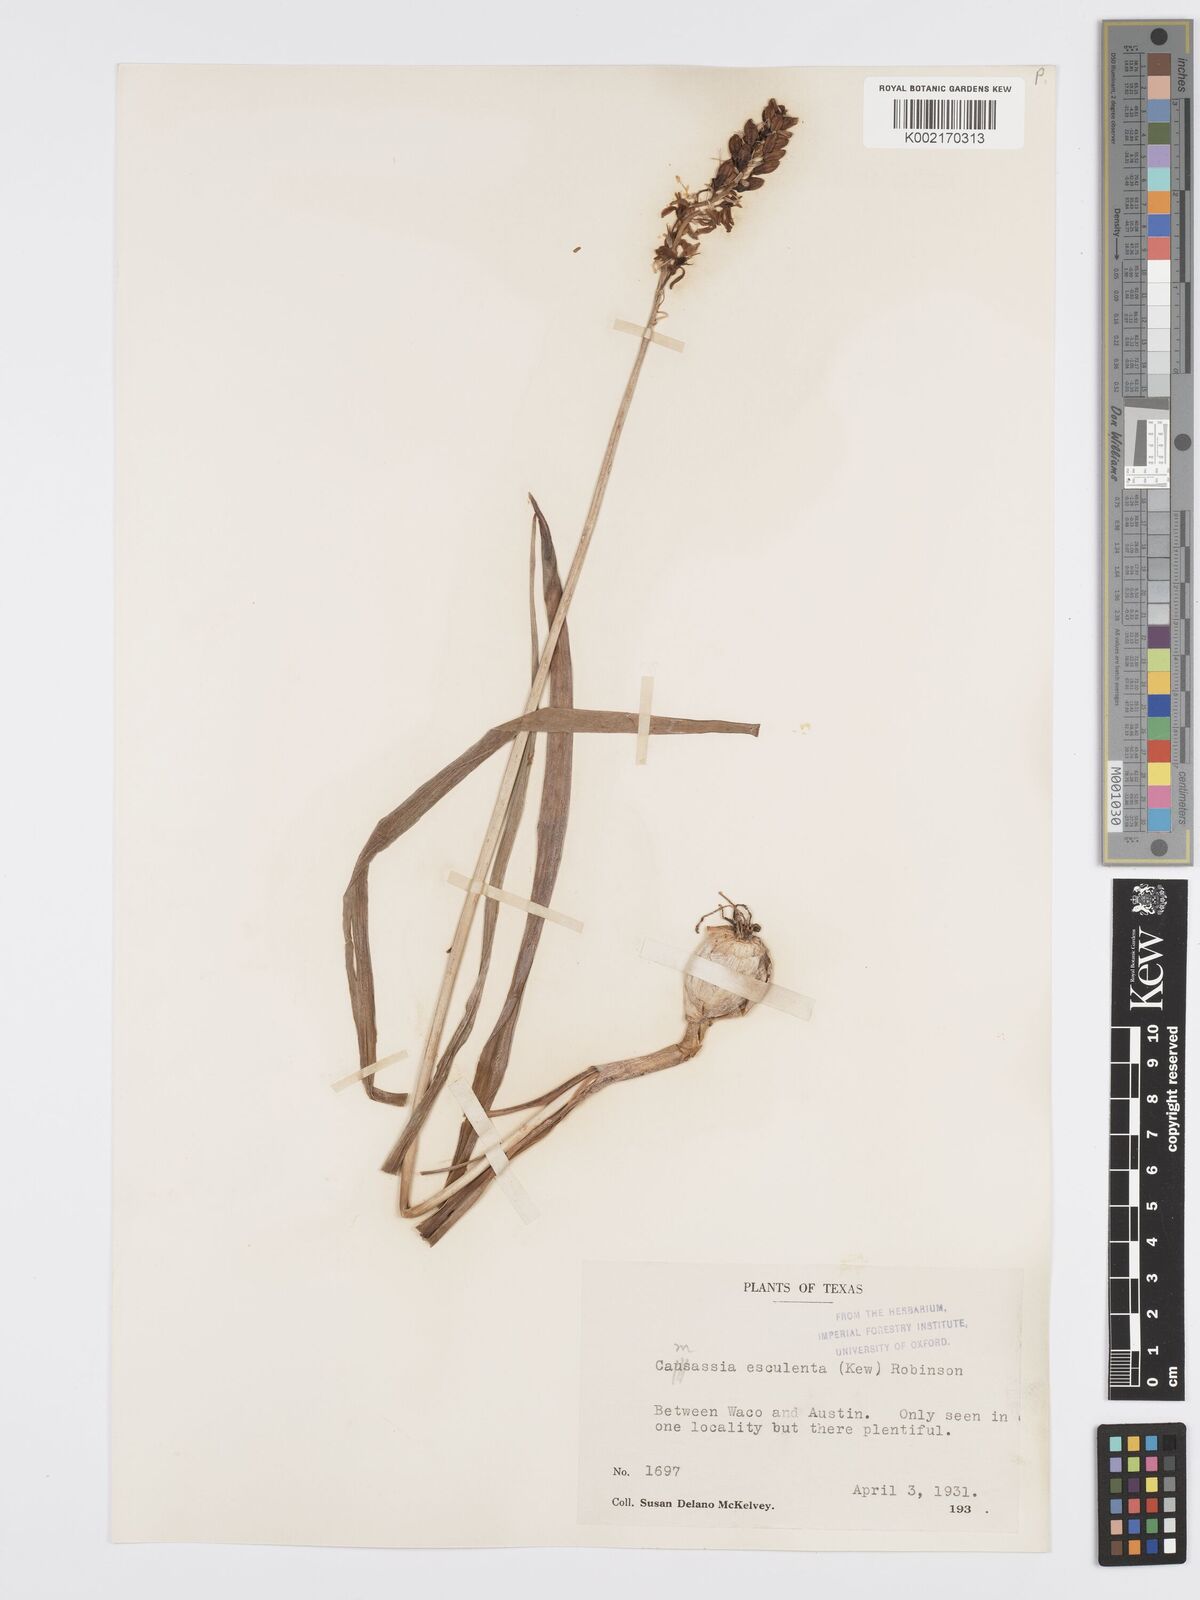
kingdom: Plantae
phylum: Tracheophyta
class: Liliopsida
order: Asparagales
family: Asparagaceae
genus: Camassia
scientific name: Camassia scilloides
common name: Wild hyacinth
